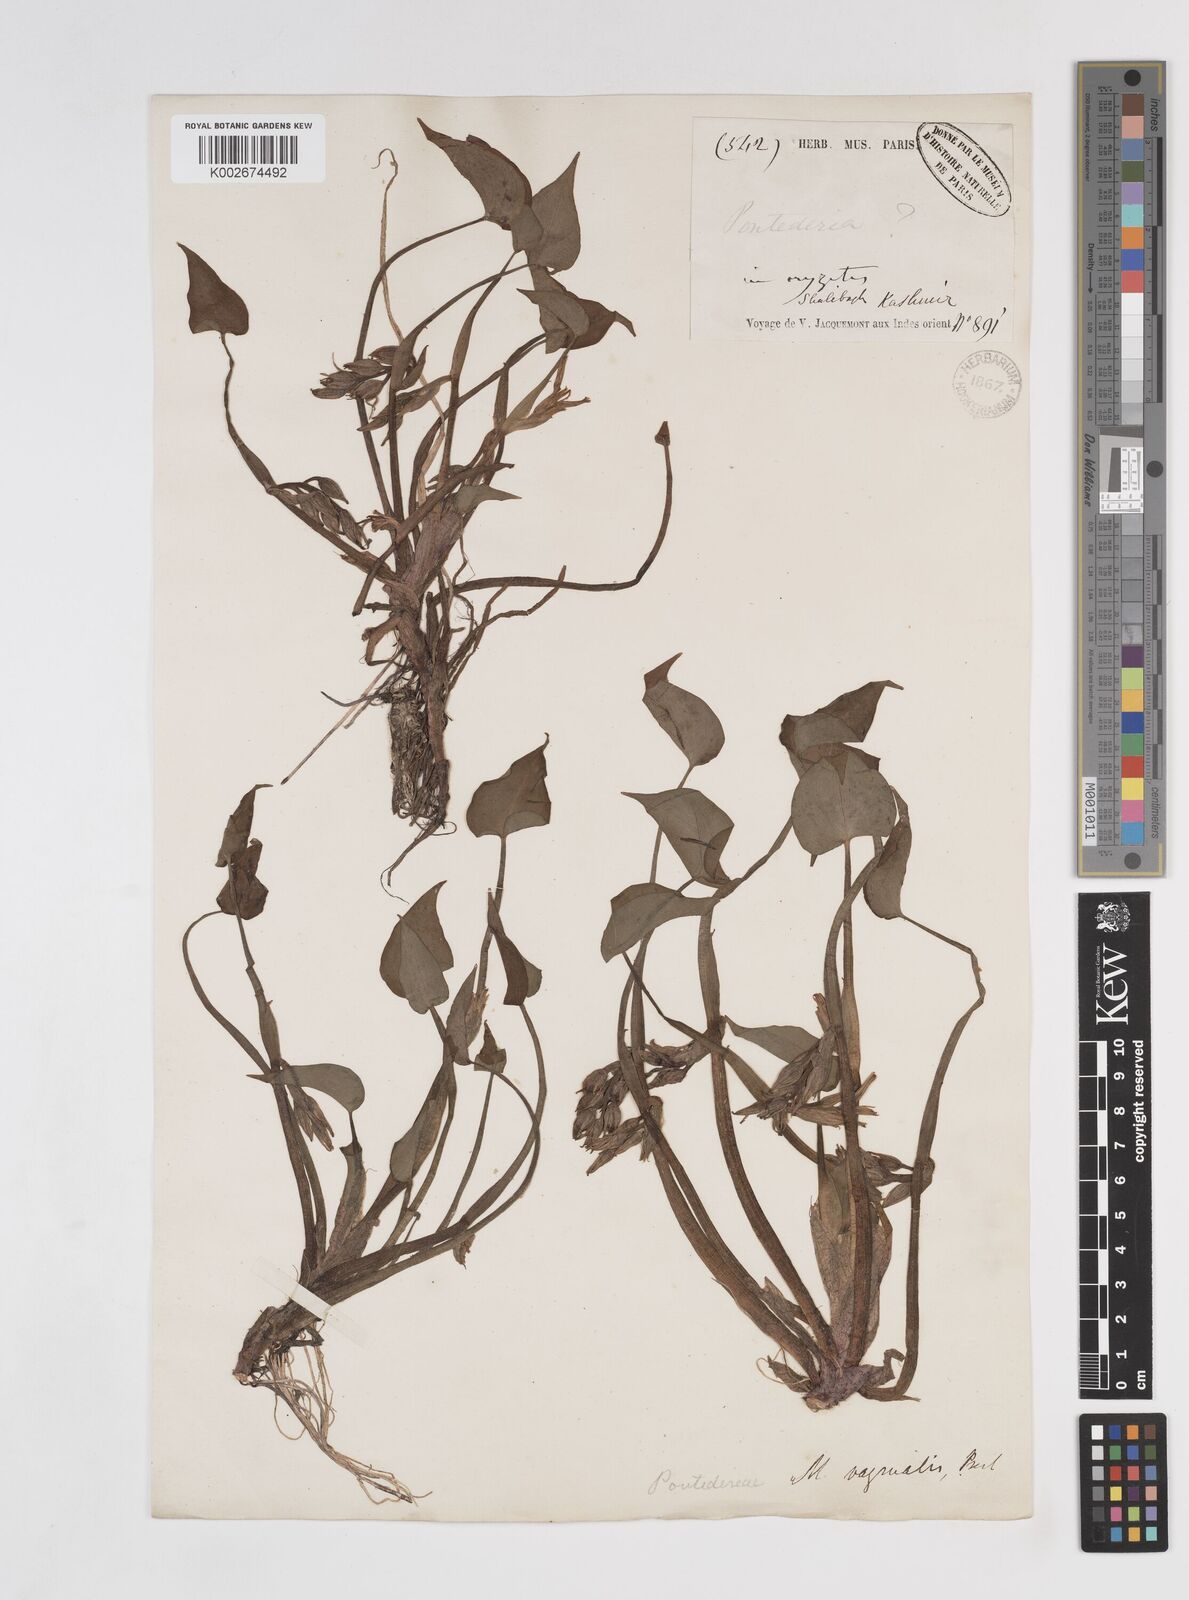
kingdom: Plantae
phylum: Tracheophyta
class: Liliopsida
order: Commelinales
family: Pontederiaceae
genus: Pontederia
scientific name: Pontederia vaginalis
